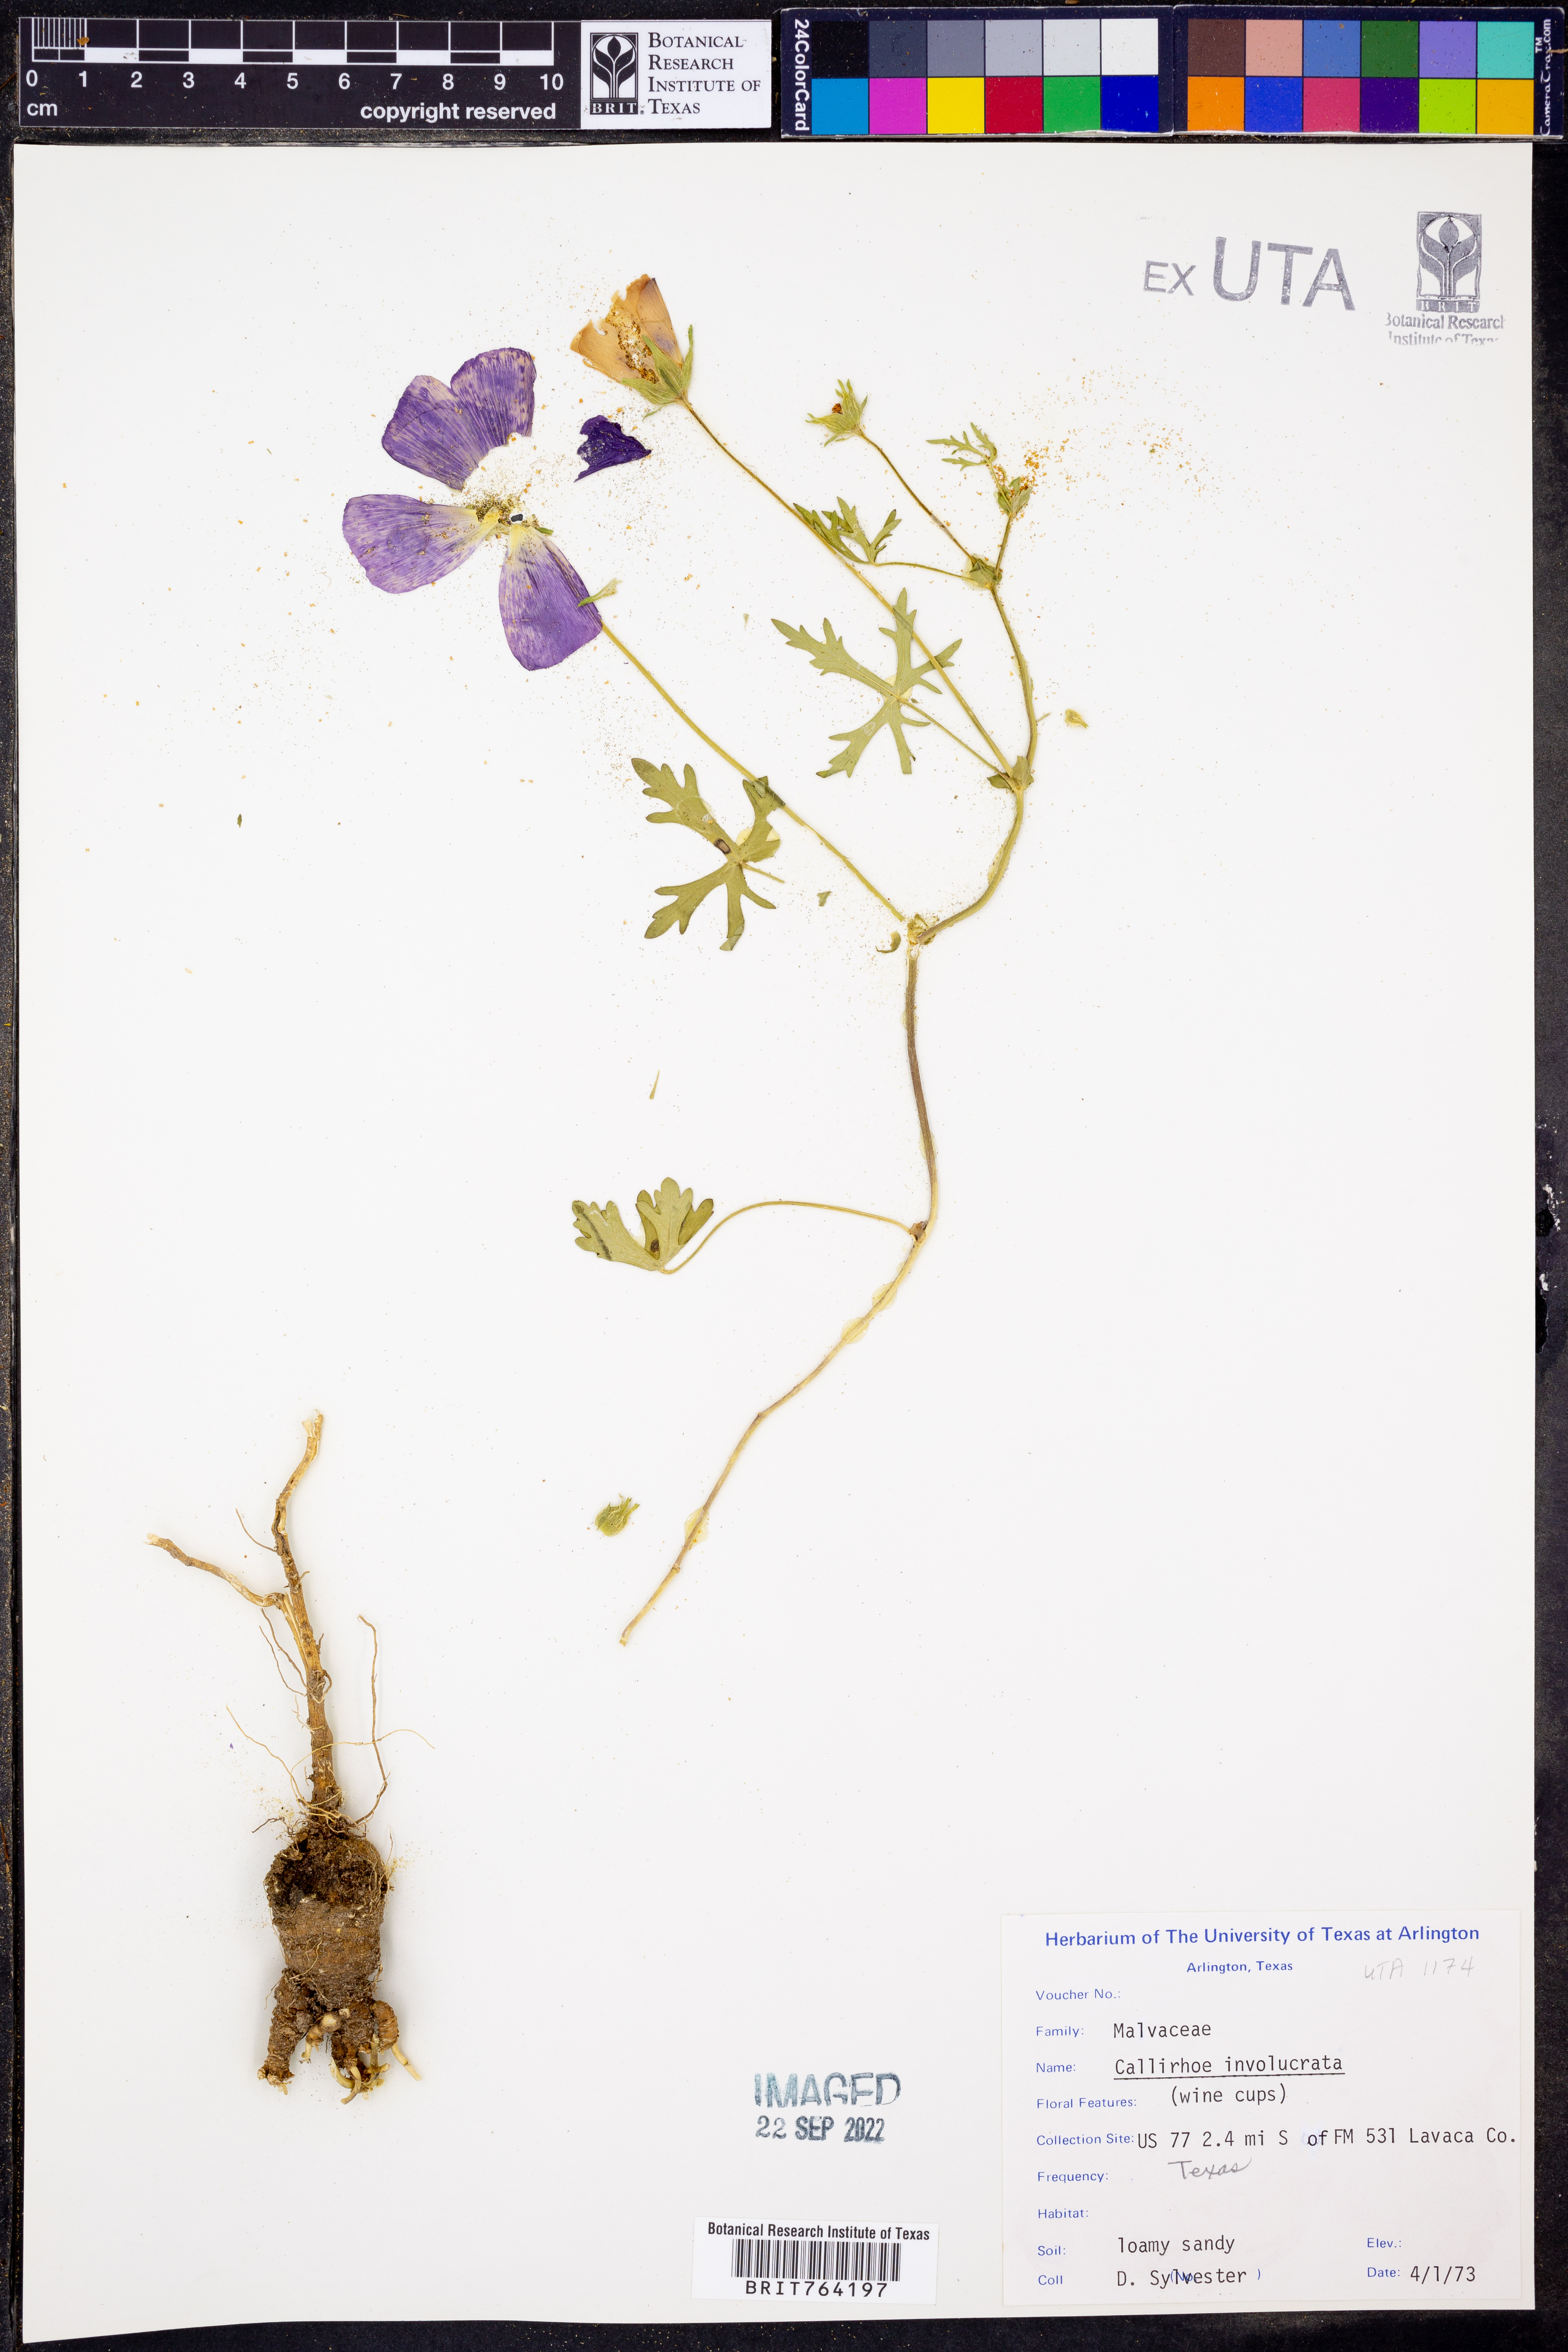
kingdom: Plantae
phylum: Tracheophyta
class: Magnoliopsida
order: Malvales
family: Malvaceae
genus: Callirhoe
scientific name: Callirhoe involucrata
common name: Purple poppy-mallow
